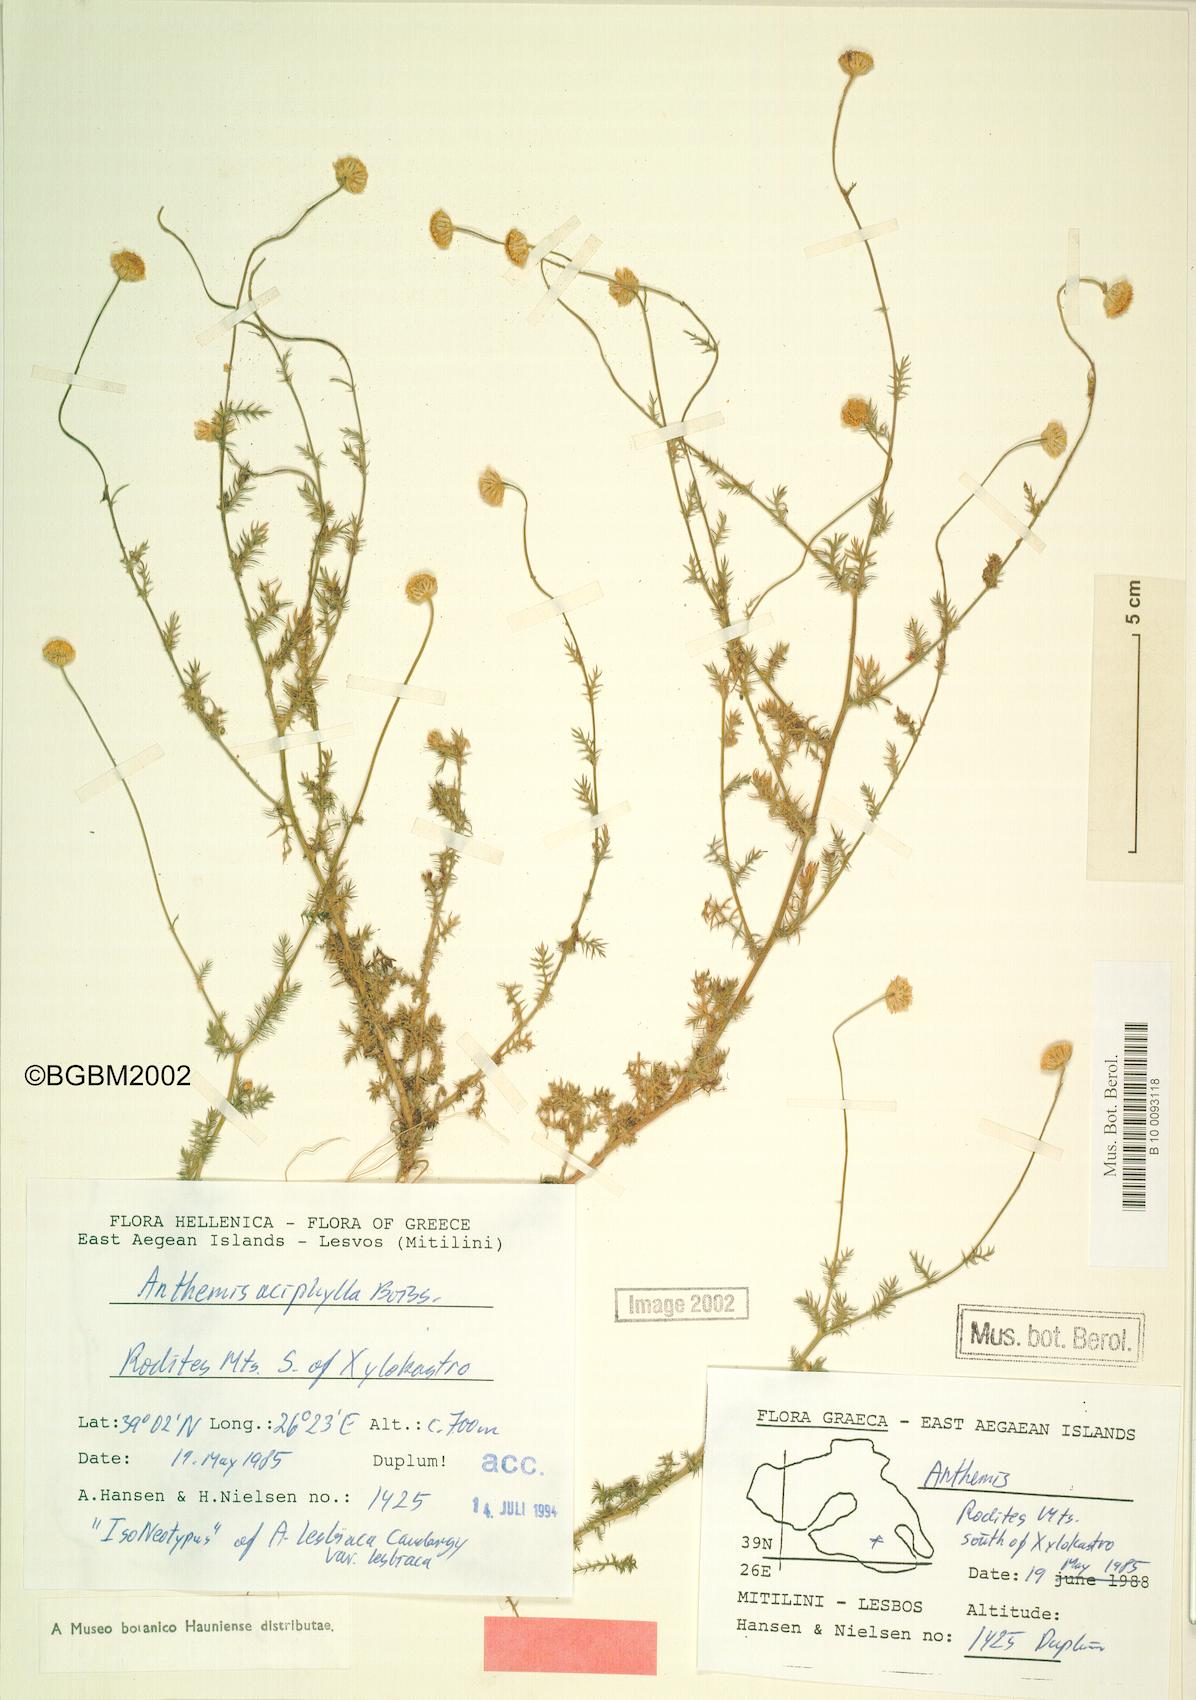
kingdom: Plantae
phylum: Tracheophyta
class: Magnoliopsida
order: Asterales
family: Asteraceae
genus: Anthemis
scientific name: Anthemis aciphylla
